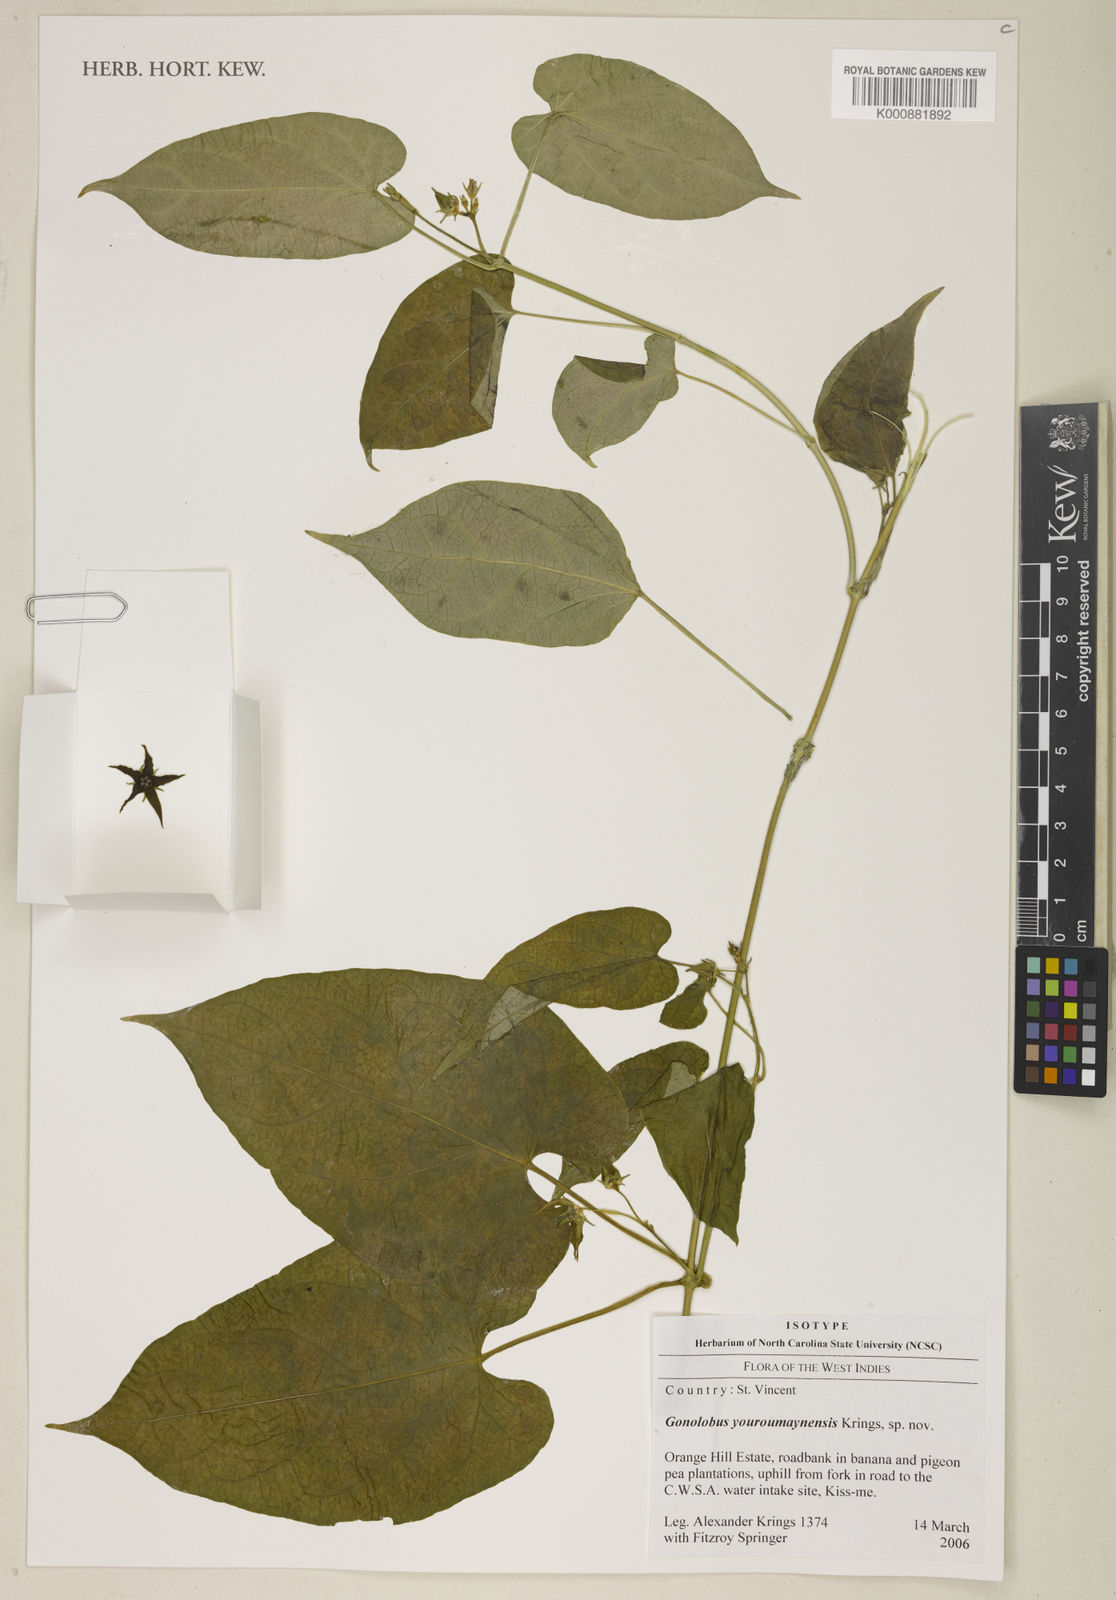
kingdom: Plantae
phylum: Tracheophyta
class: Magnoliopsida
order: Gentianales
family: Apocynaceae
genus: Gonolobus
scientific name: Gonolobus youroumaynensis
